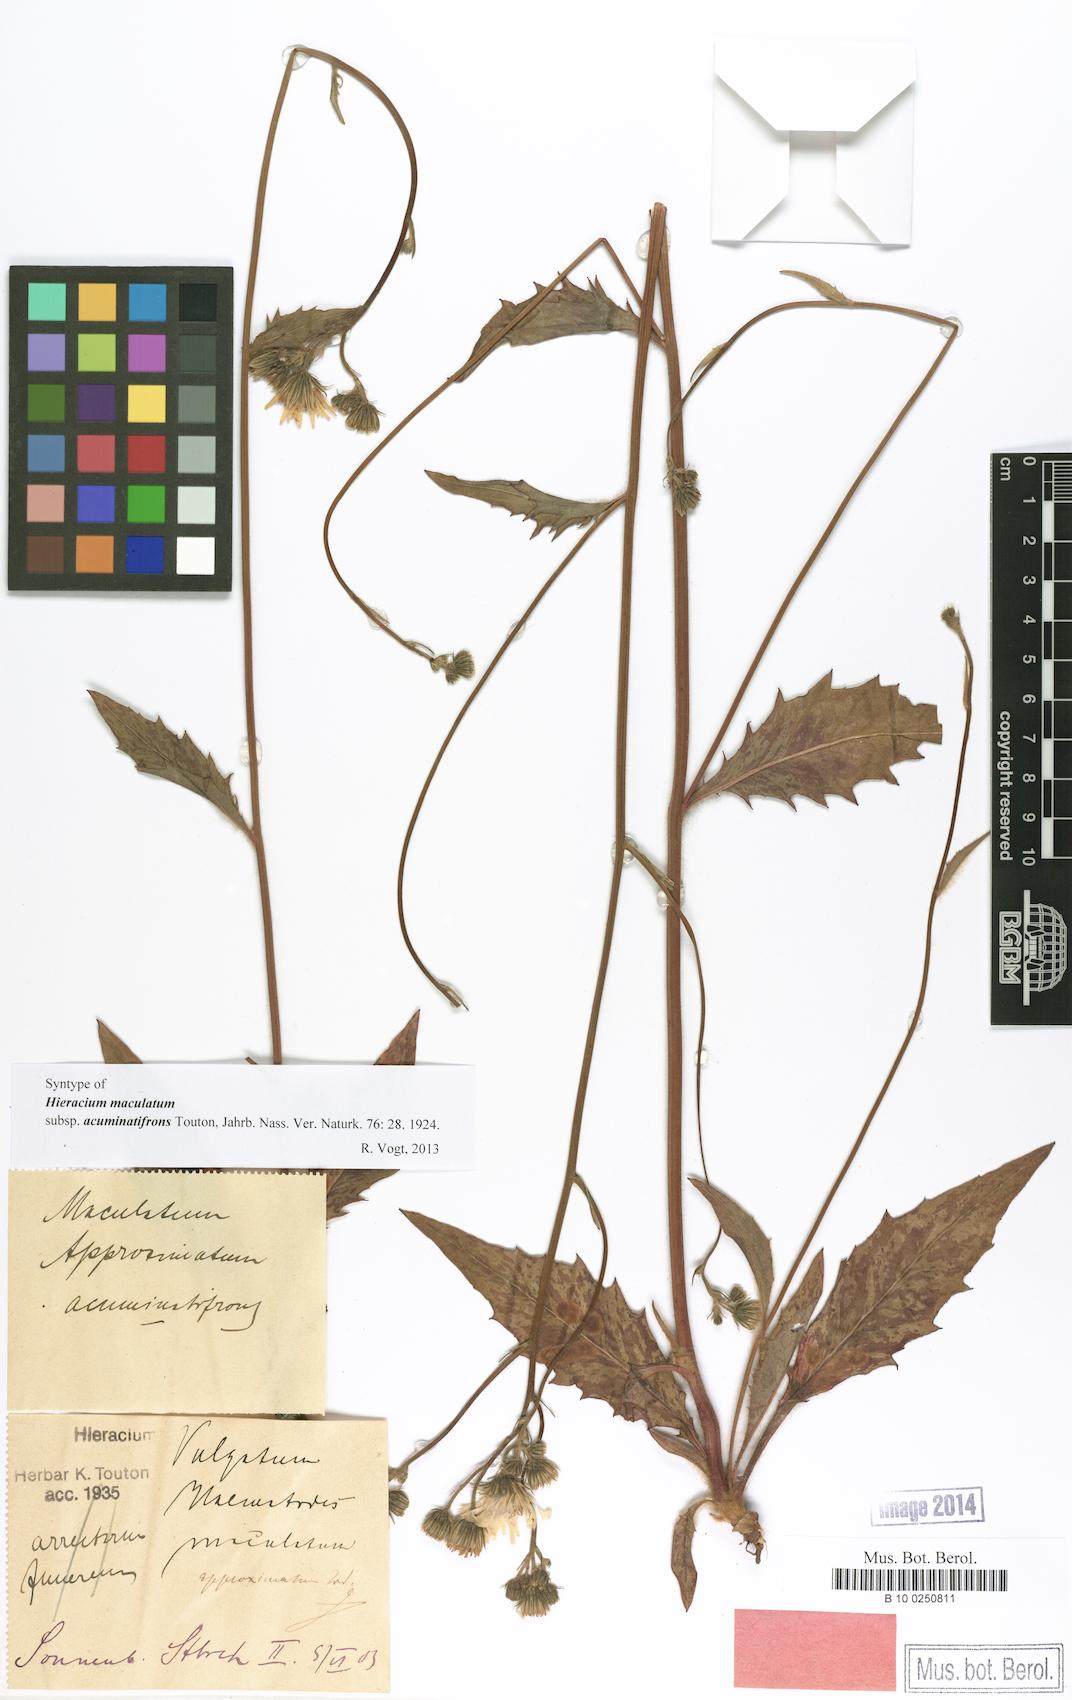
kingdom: Plantae
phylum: Tracheophyta
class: Magnoliopsida
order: Asterales
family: Asteraceae
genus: Hieracium
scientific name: Hieracium maculatum
